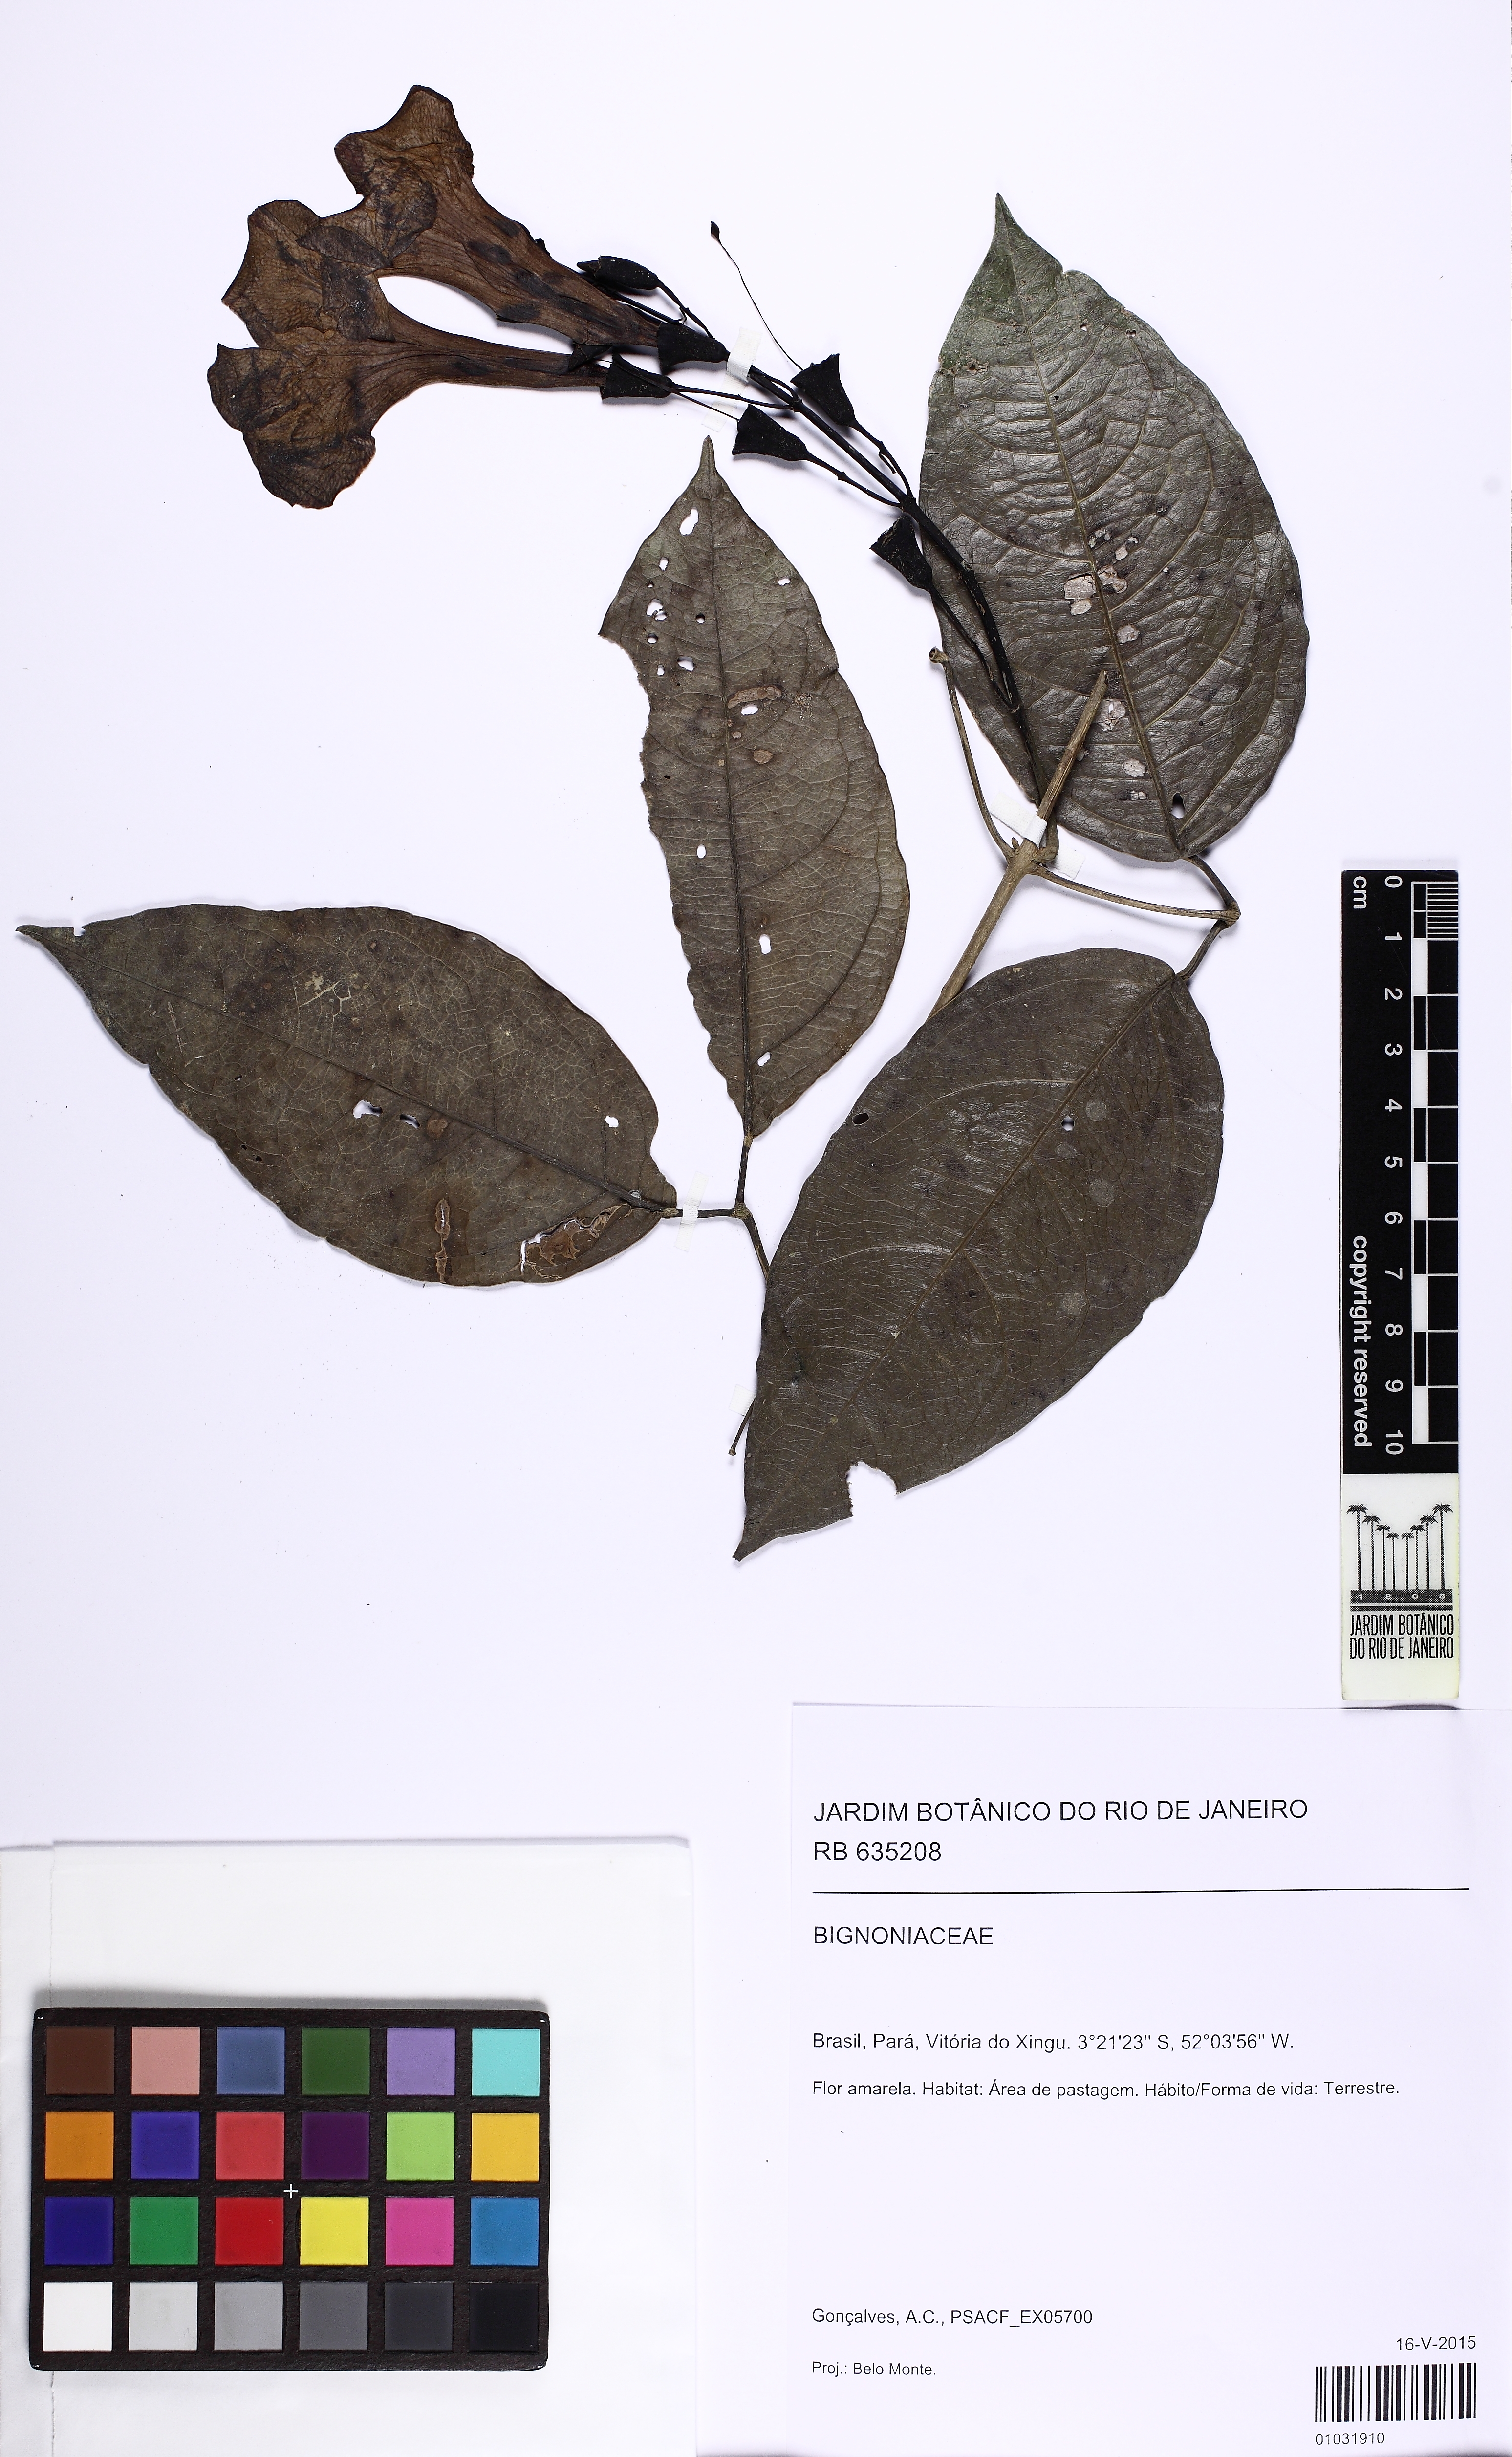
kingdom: Plantae
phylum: Tracheophyta
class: Magnoliopsida
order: Lamiales
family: Bignoniaceae
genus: Adenocalymma
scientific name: Adenocalymma impressum
